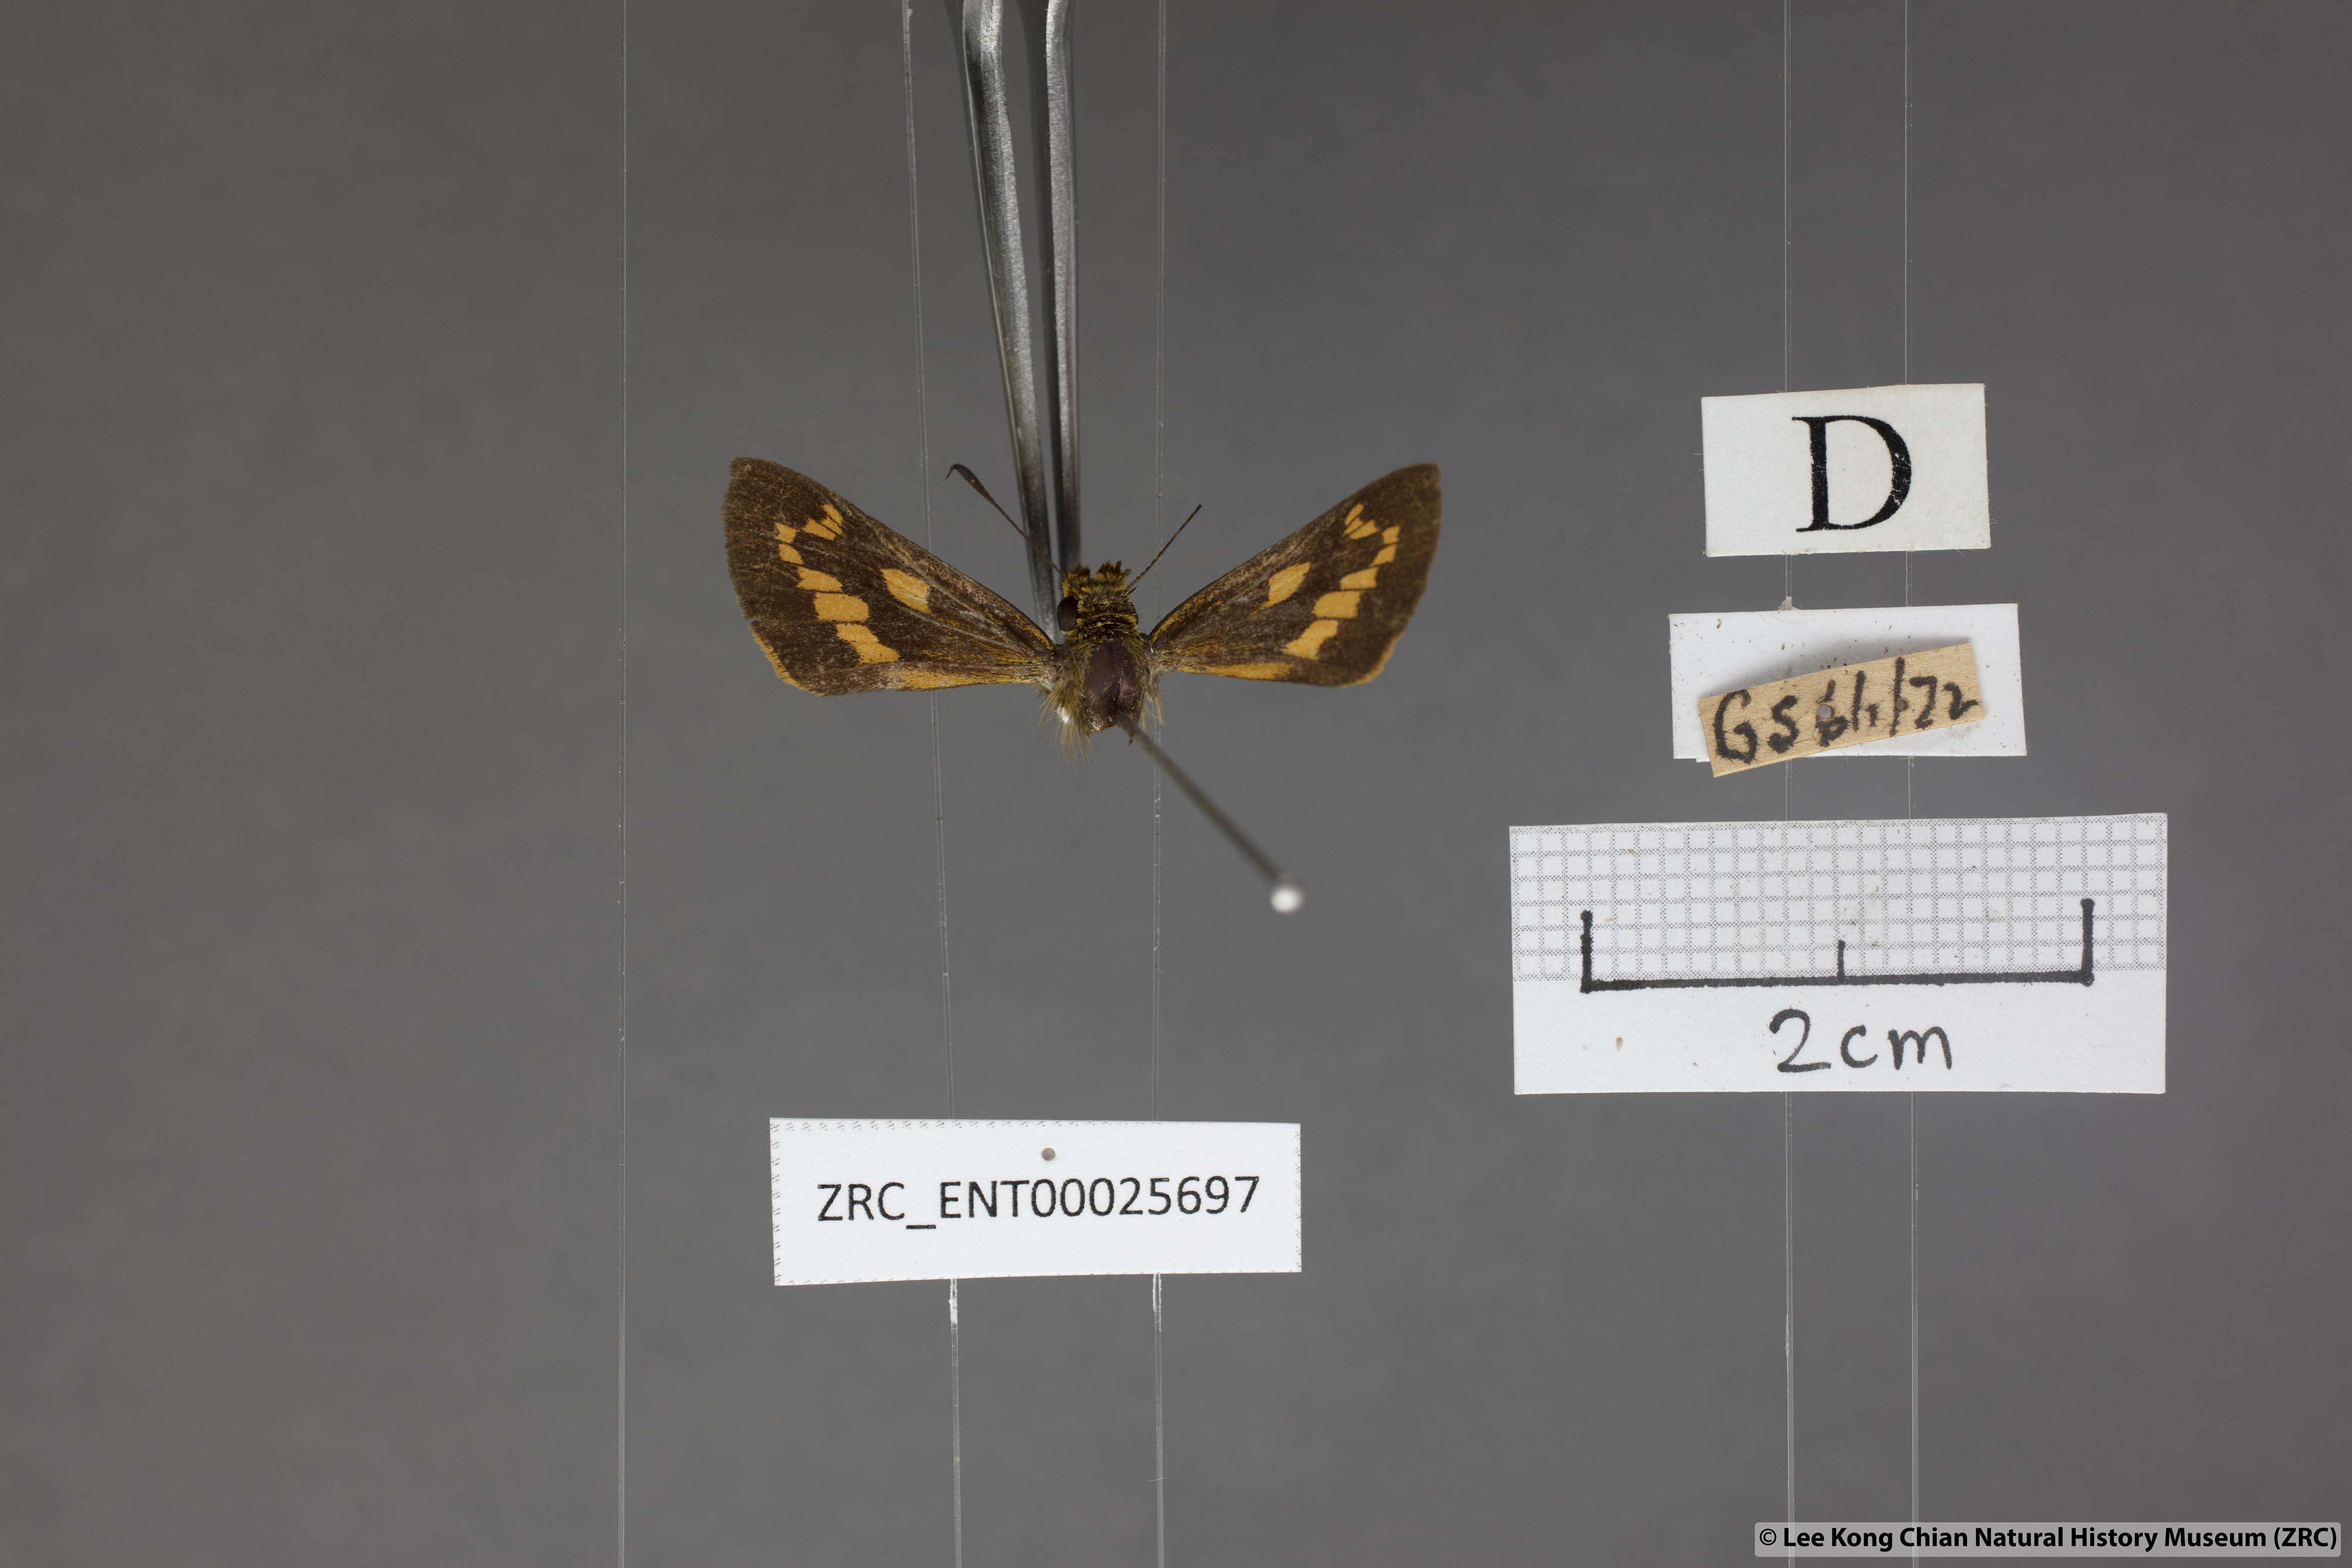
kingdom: Animalia
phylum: Arthropoda
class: Insecta
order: Lepidoptera
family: Hesperiidae
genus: Telicota
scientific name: Telicota ohara
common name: Dark palm dart
